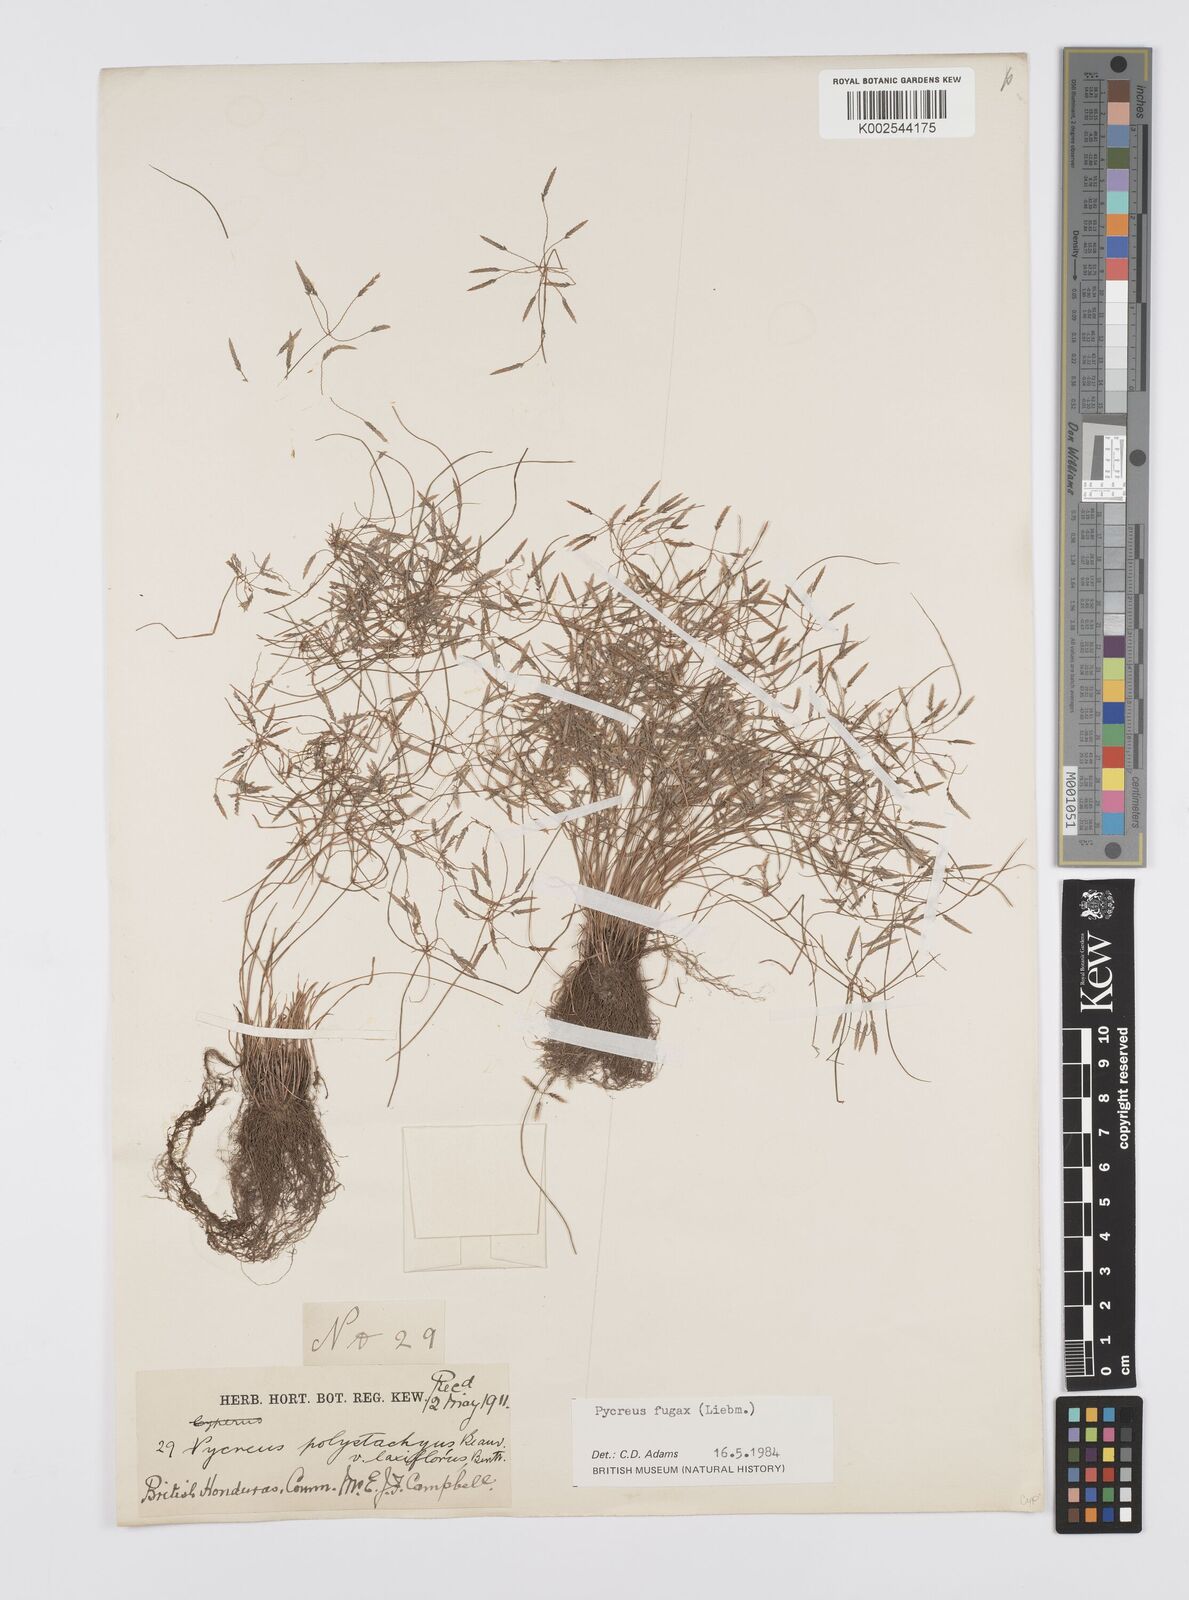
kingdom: Plantae
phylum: Tracheophyta
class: Liliopsida
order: Poales
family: Cyperaceae
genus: Cyperus
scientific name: Cyperus polystachyos
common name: Bunchy flat sedge
